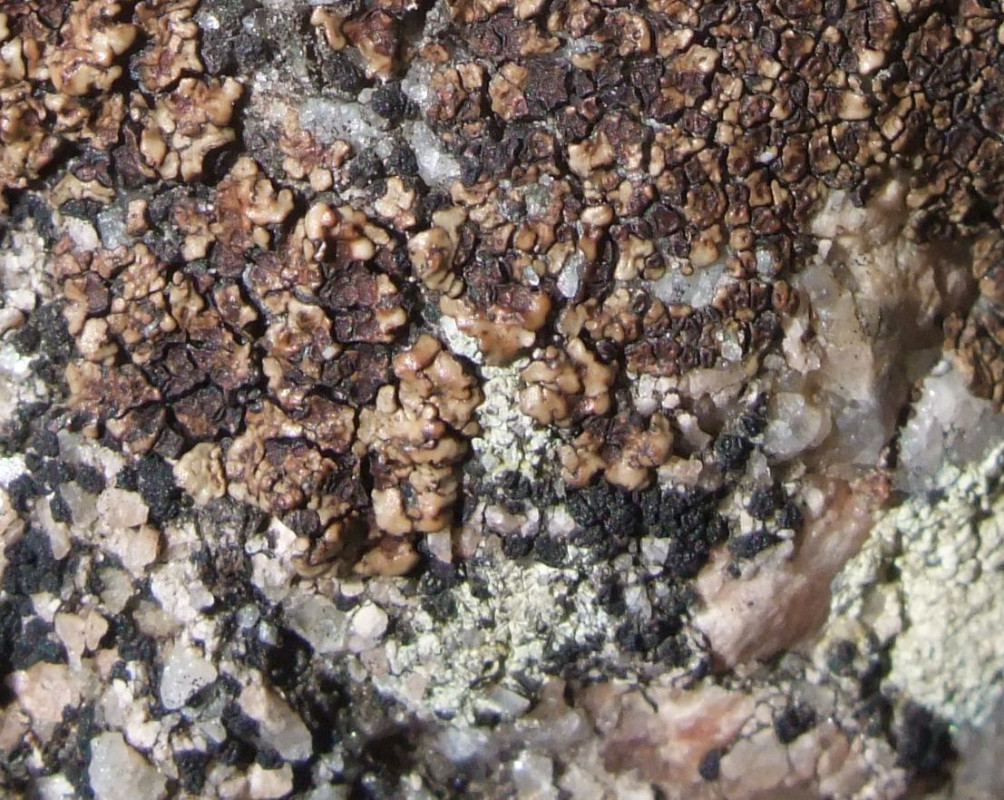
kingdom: Fungi
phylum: Ascomycota
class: Lecanoromycetes
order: Acarosporales
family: Acarosporaceae
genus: Acarospora
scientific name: Acarospora privigna
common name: sort foldekantlav
